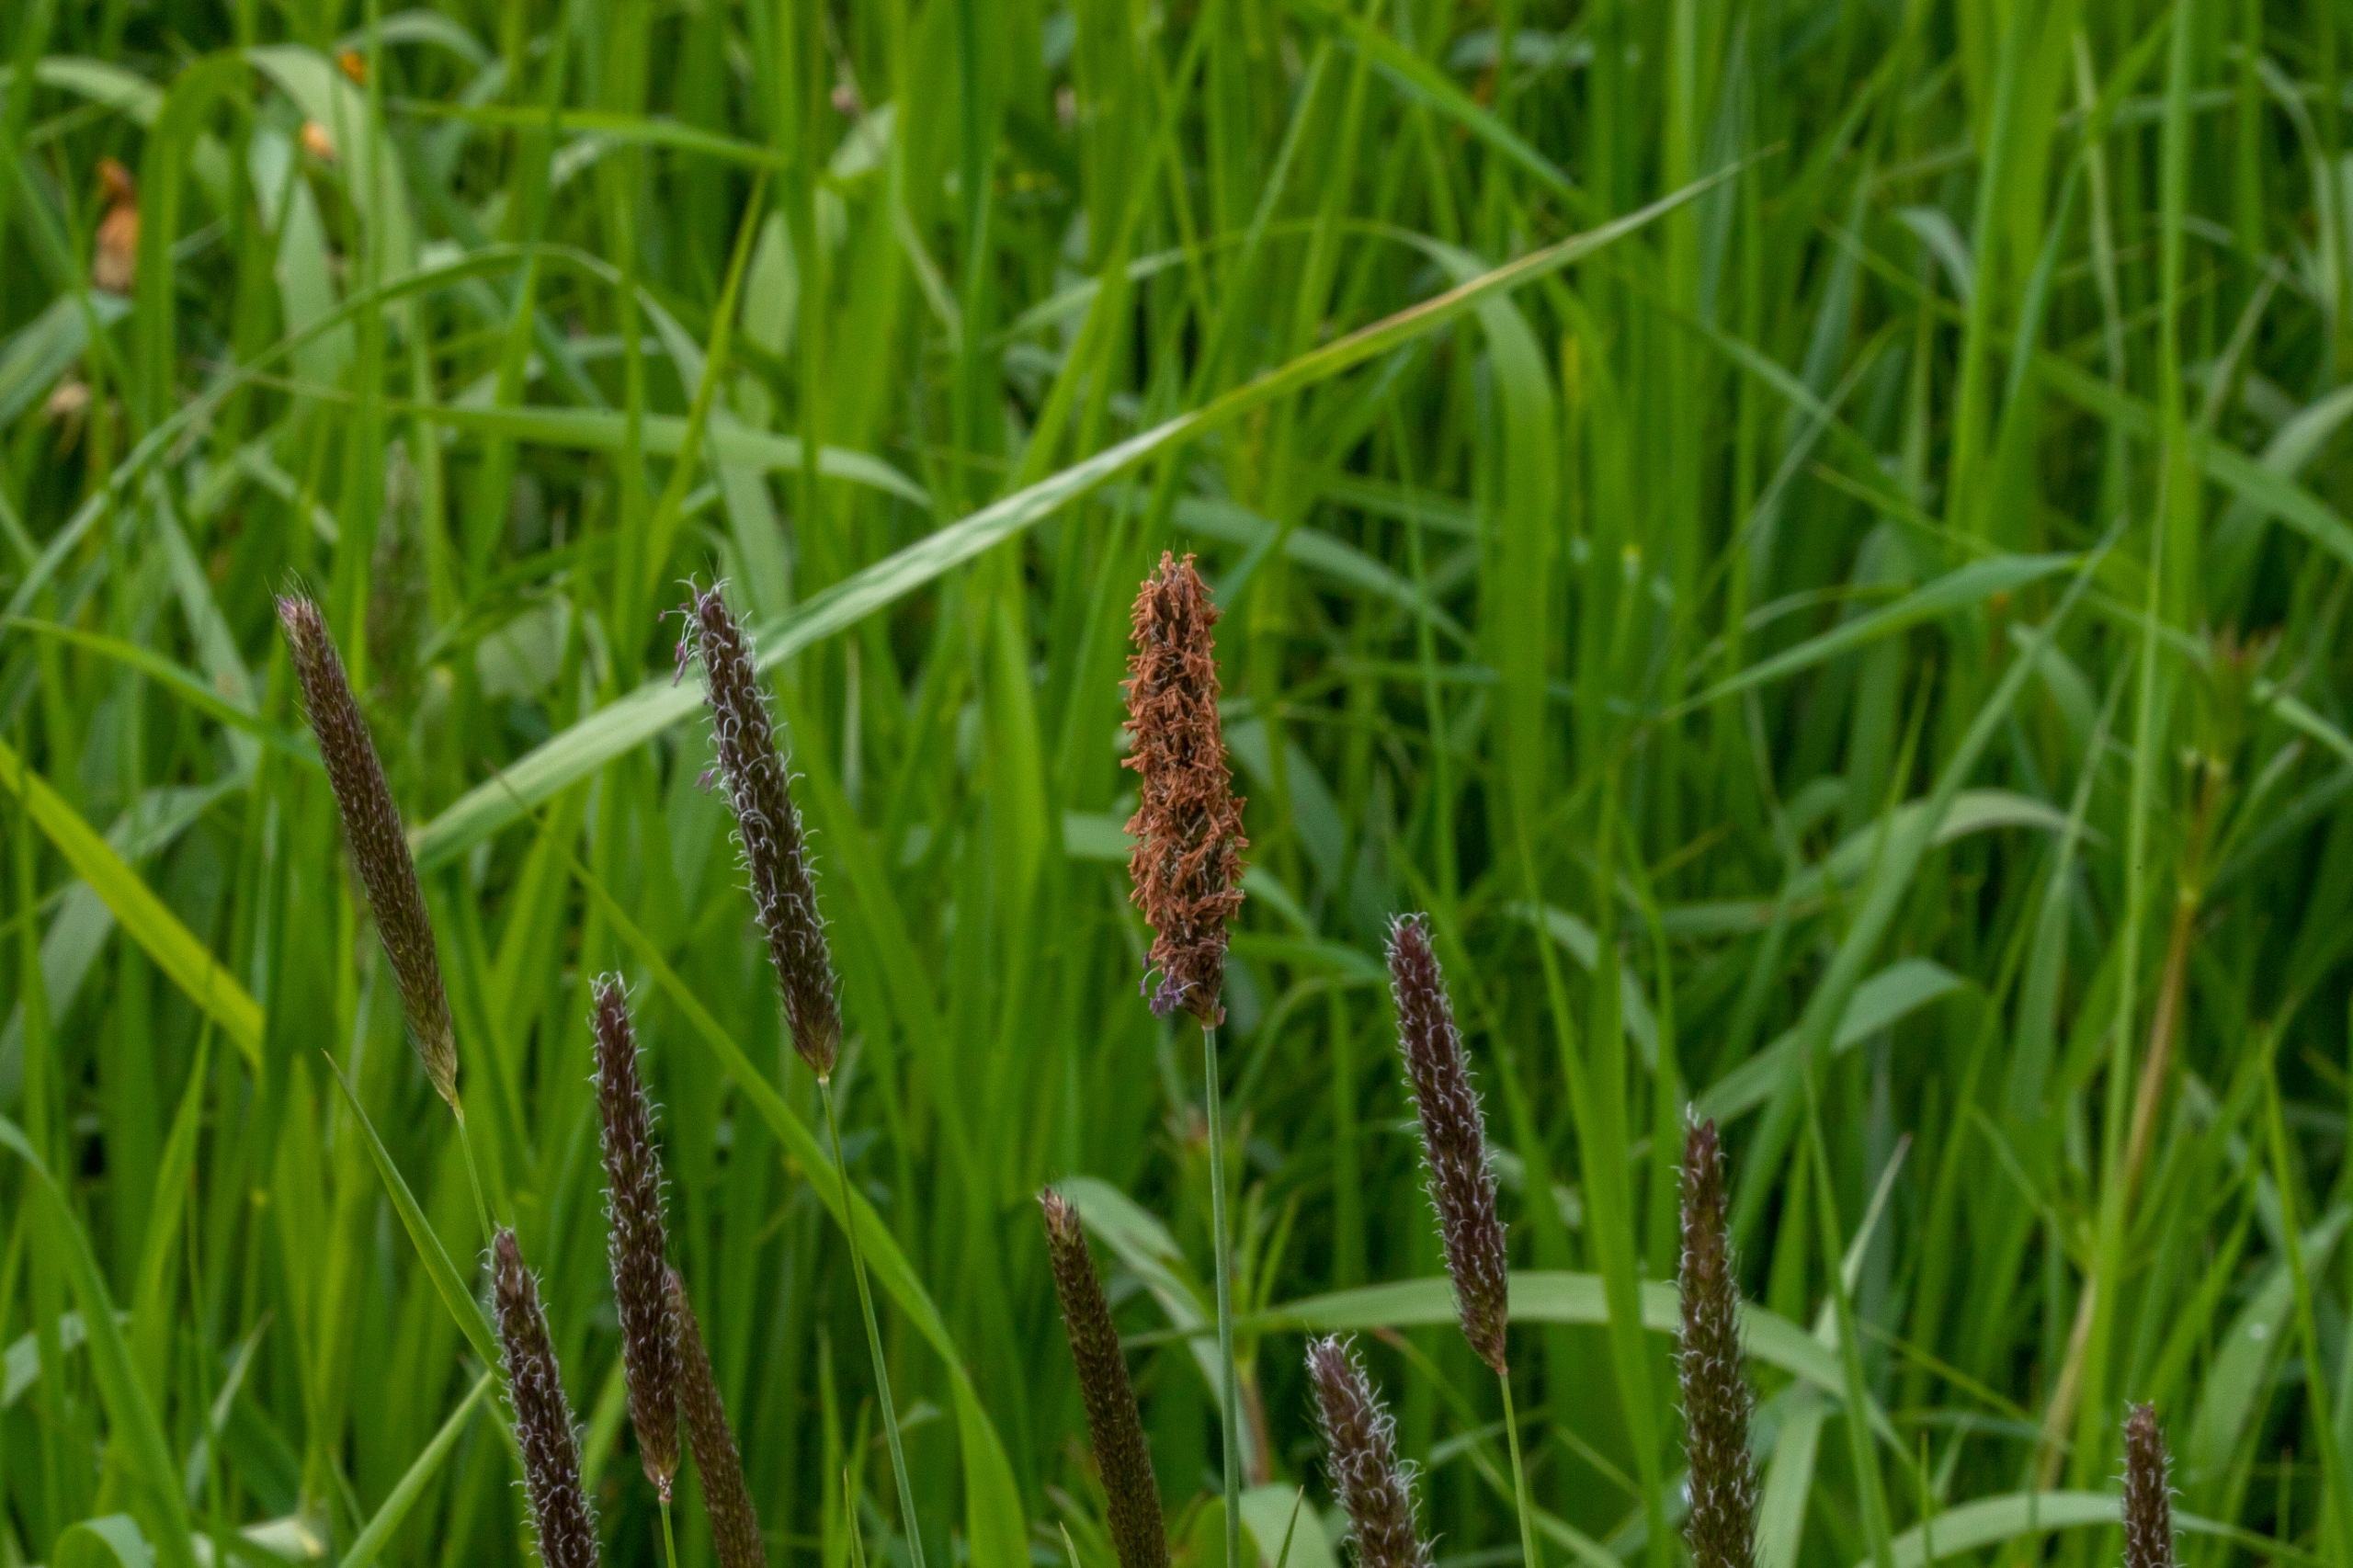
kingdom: Plantae
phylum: Tracheophyta
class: Liliopsida
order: Poales
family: Poaceae
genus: Alopecurus
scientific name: Alopecurus pratensis
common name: Eng-rævehale
